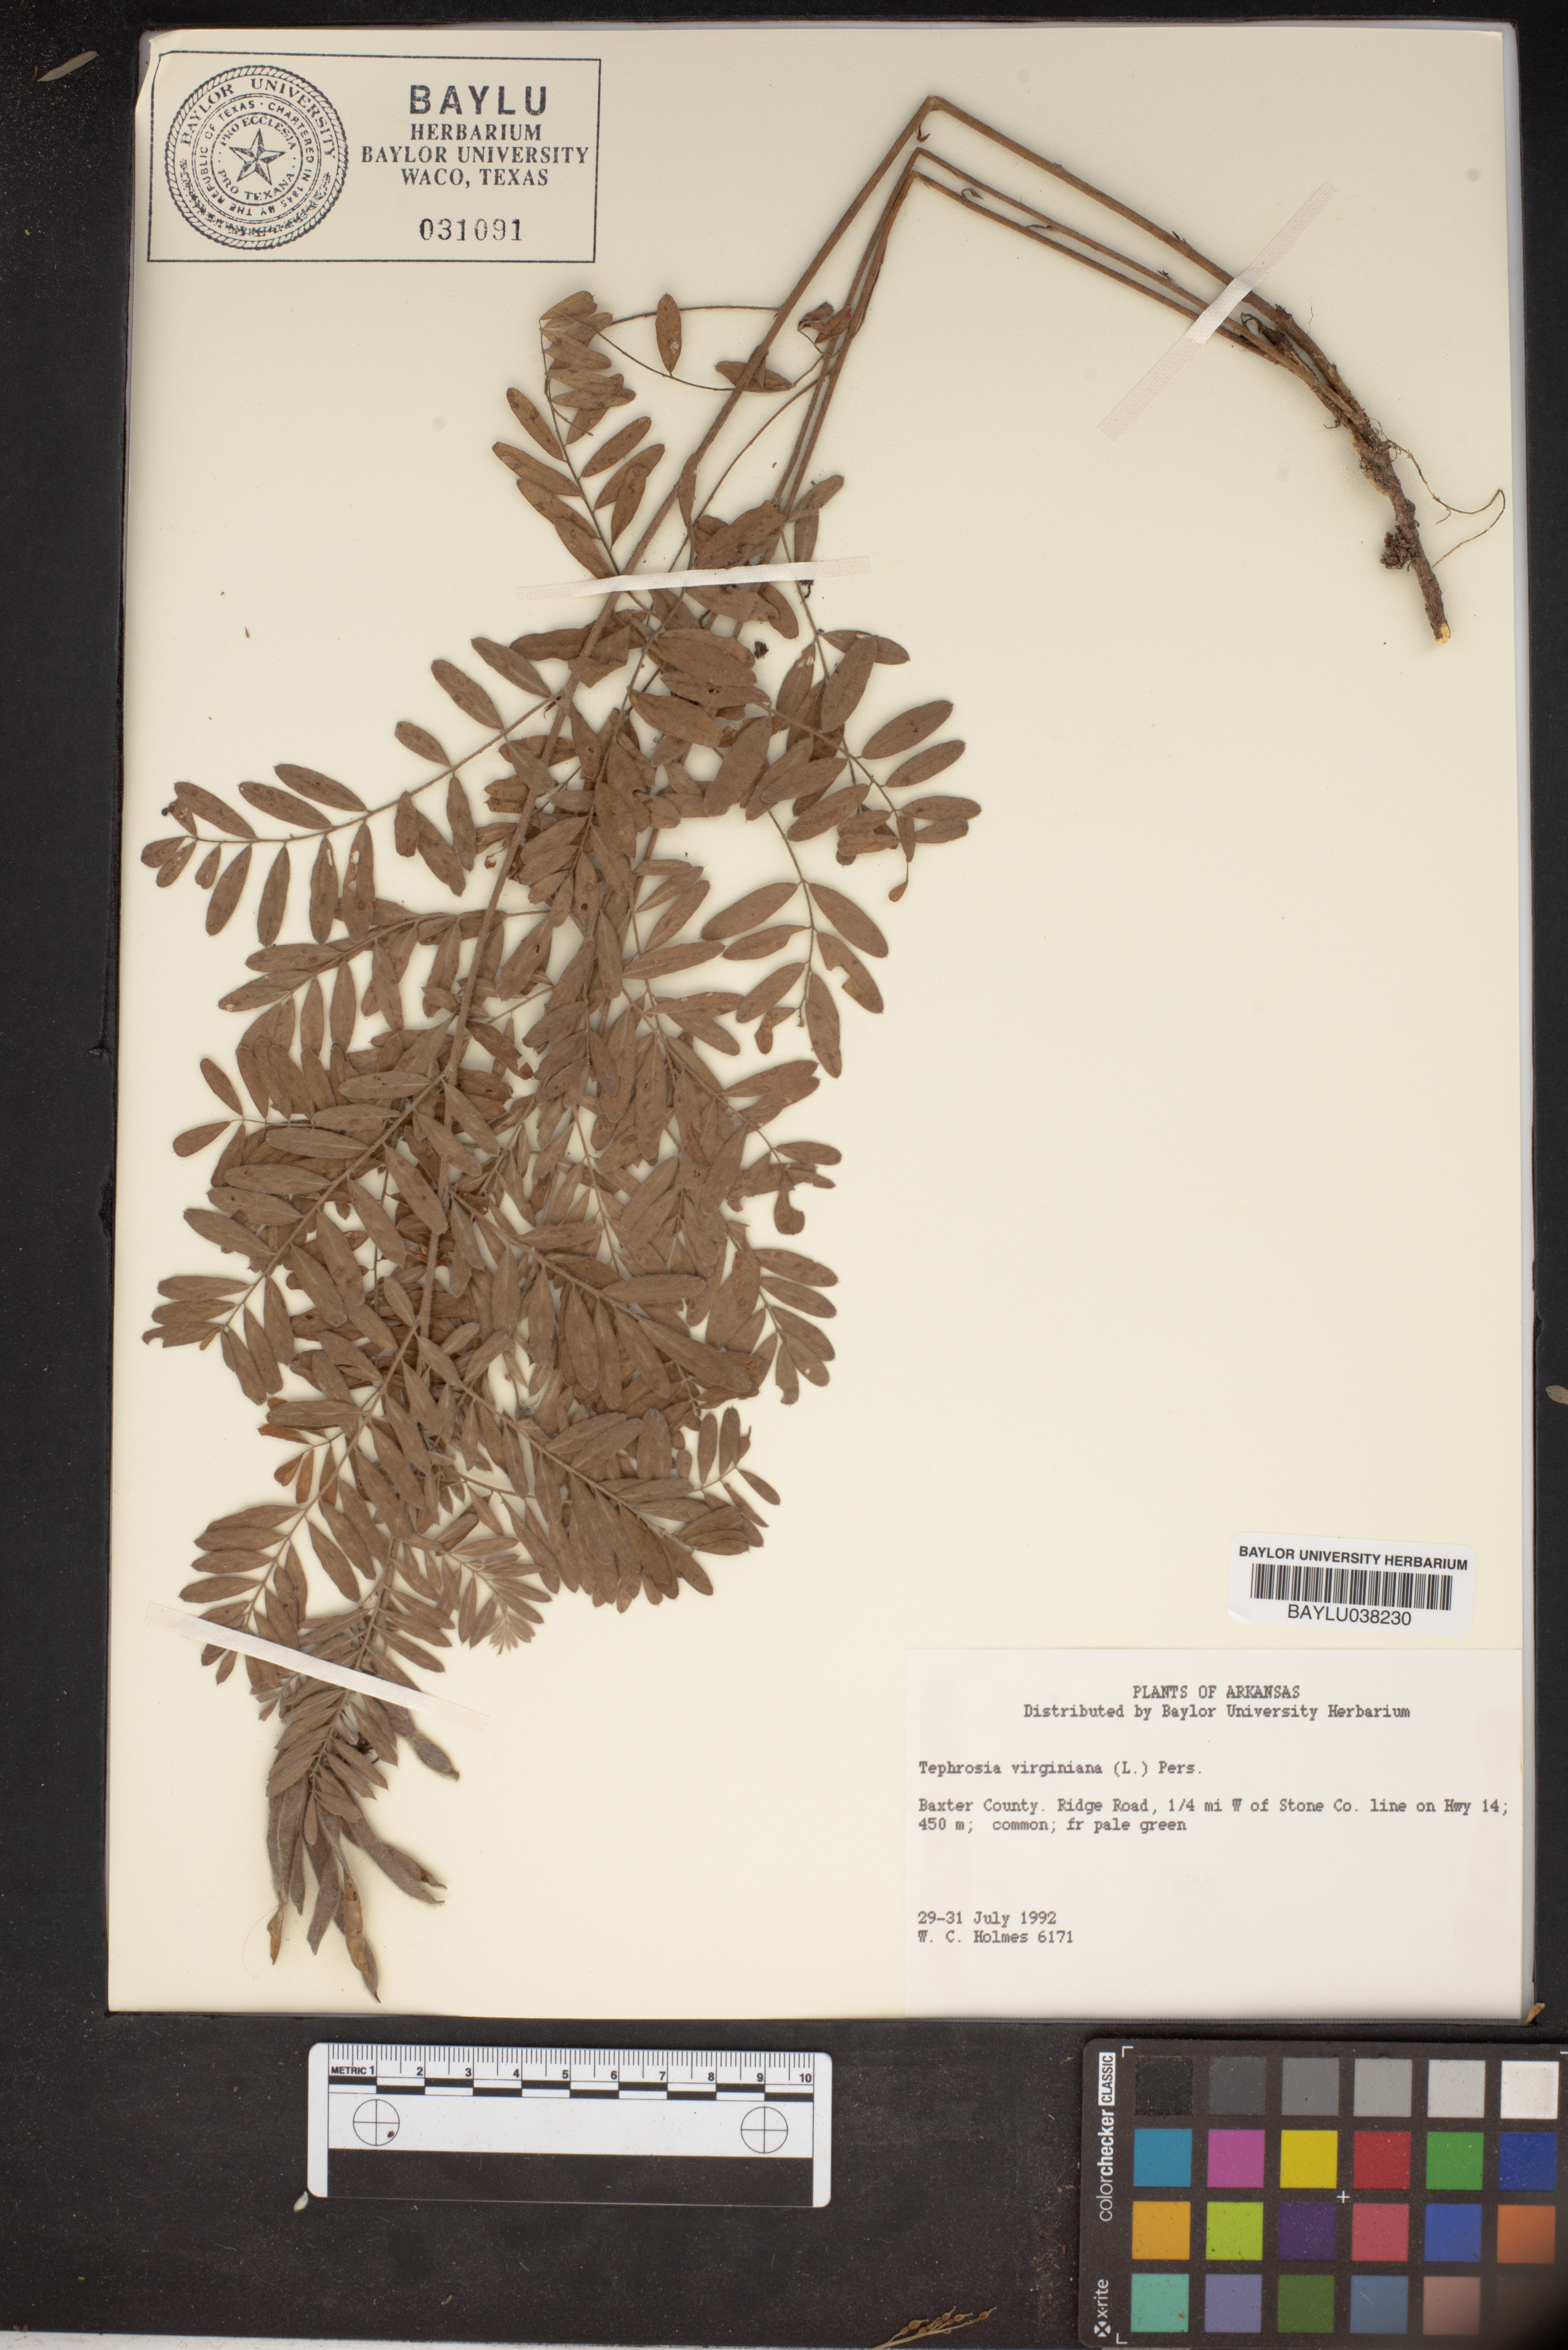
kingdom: Plantae
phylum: Tracheophyta
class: Magnoliopsida
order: Fabales
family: Fabaceae
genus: Tephrosia
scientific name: Tephrosia virginiana
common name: Rabbit-pea
